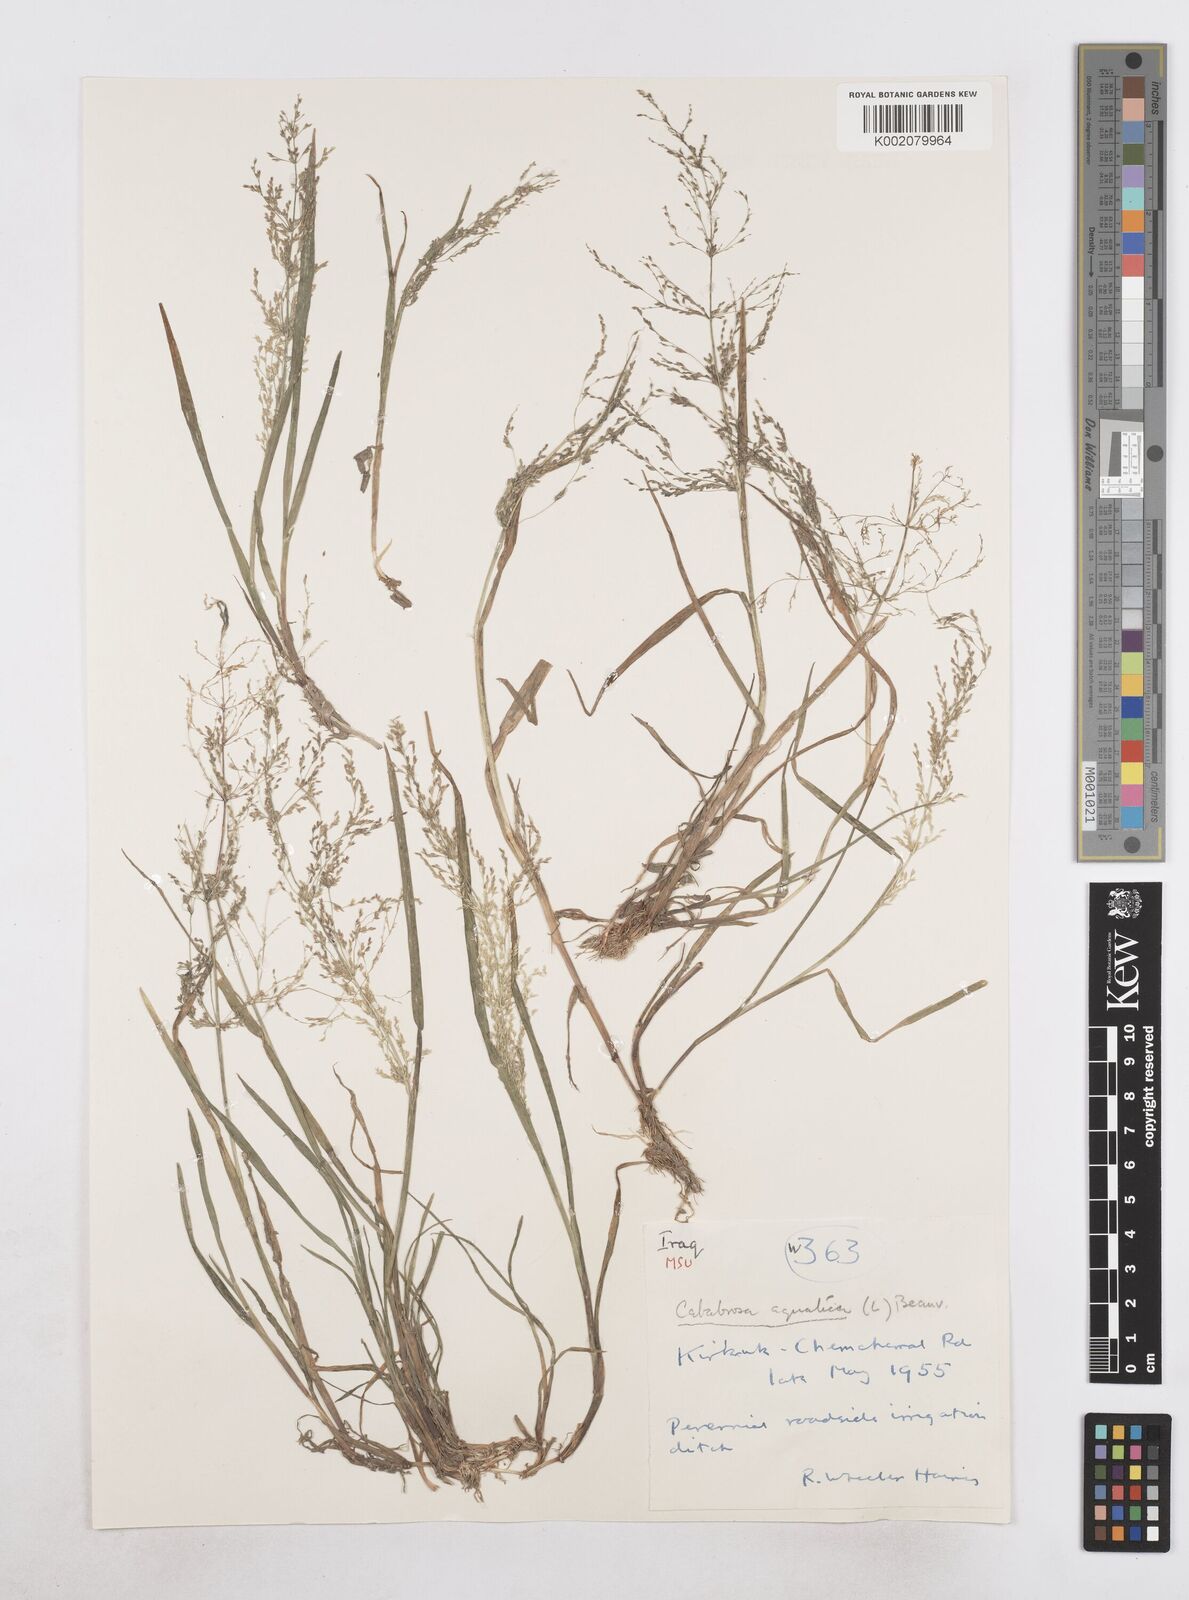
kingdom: Plantae
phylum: Tracheophyta
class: Liliopsida
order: Poales
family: Poaceae
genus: Catabrosa
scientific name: Catabrosa aquatica
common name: Whorl-grass
